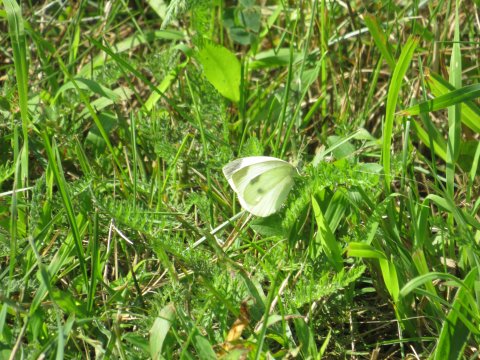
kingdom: Animalia
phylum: Arthropoda
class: Insecta
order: Lepidoptera
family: Pieridae
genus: Pieris
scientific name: Pieris rapae
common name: Cabbage White
